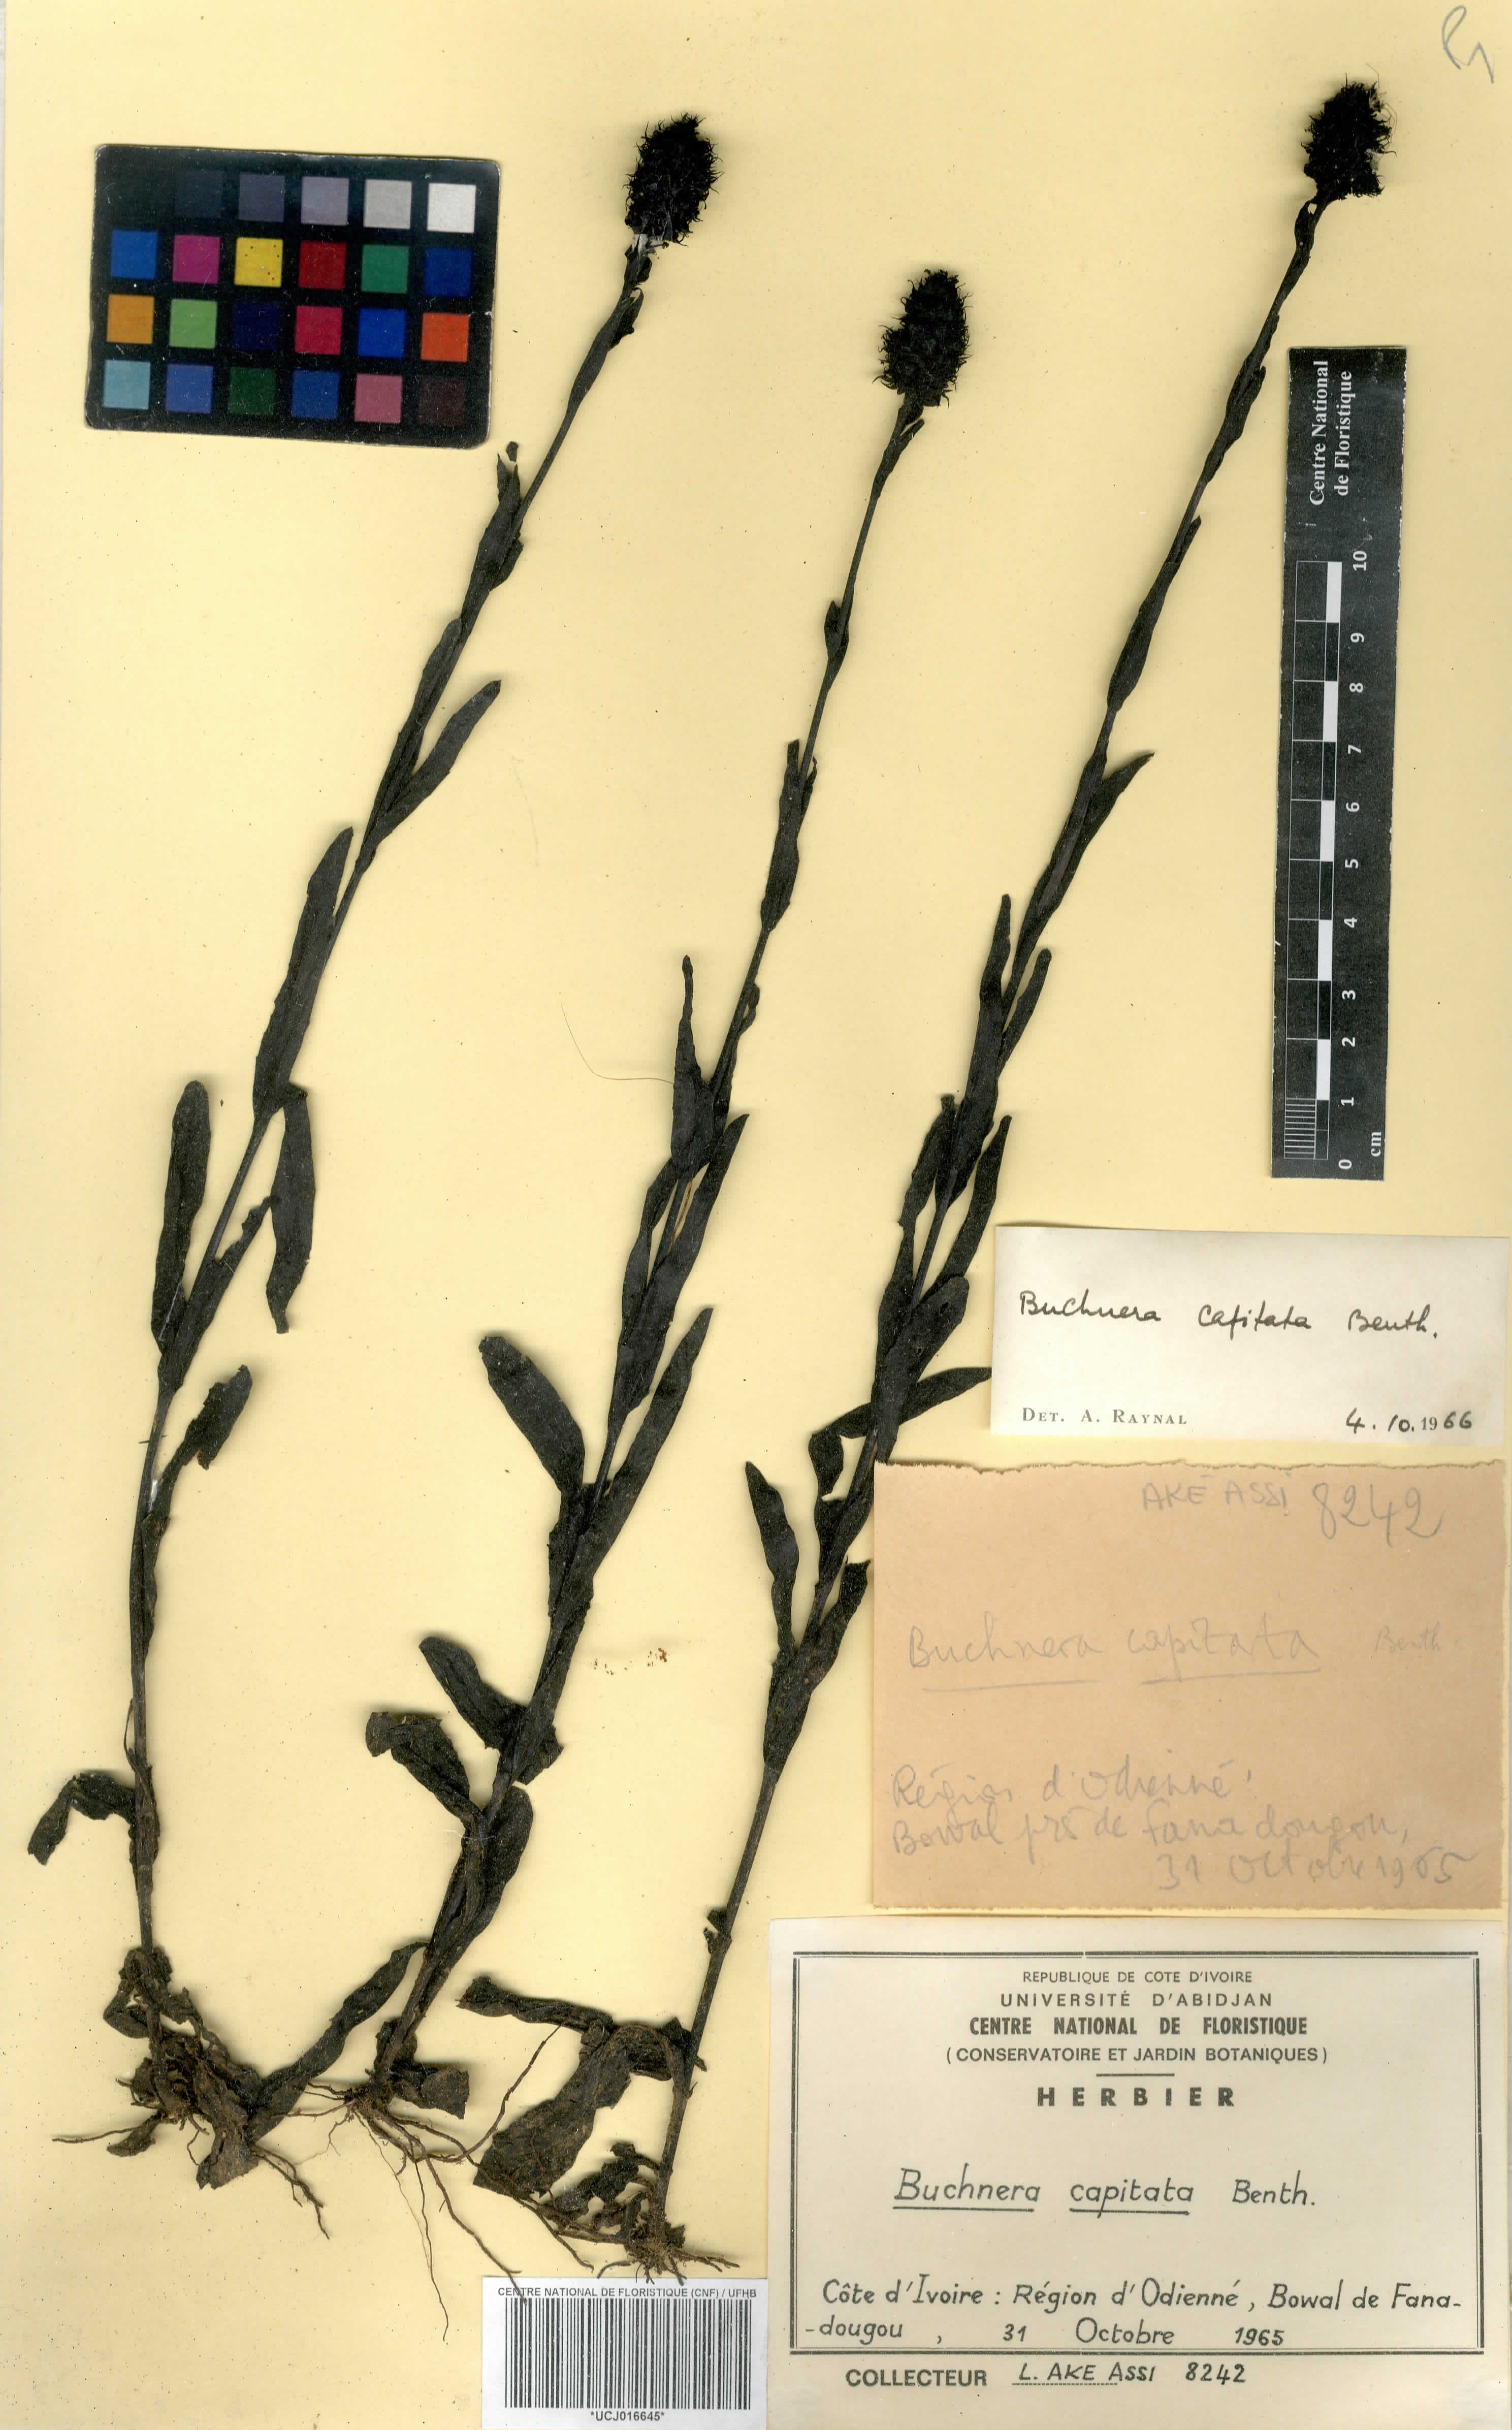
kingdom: Plantae
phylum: Tracheophyta
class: Magnoliopsida
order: Lamiales
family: Orobanchaceae
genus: Buchnera
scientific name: Buchnera decandollei
